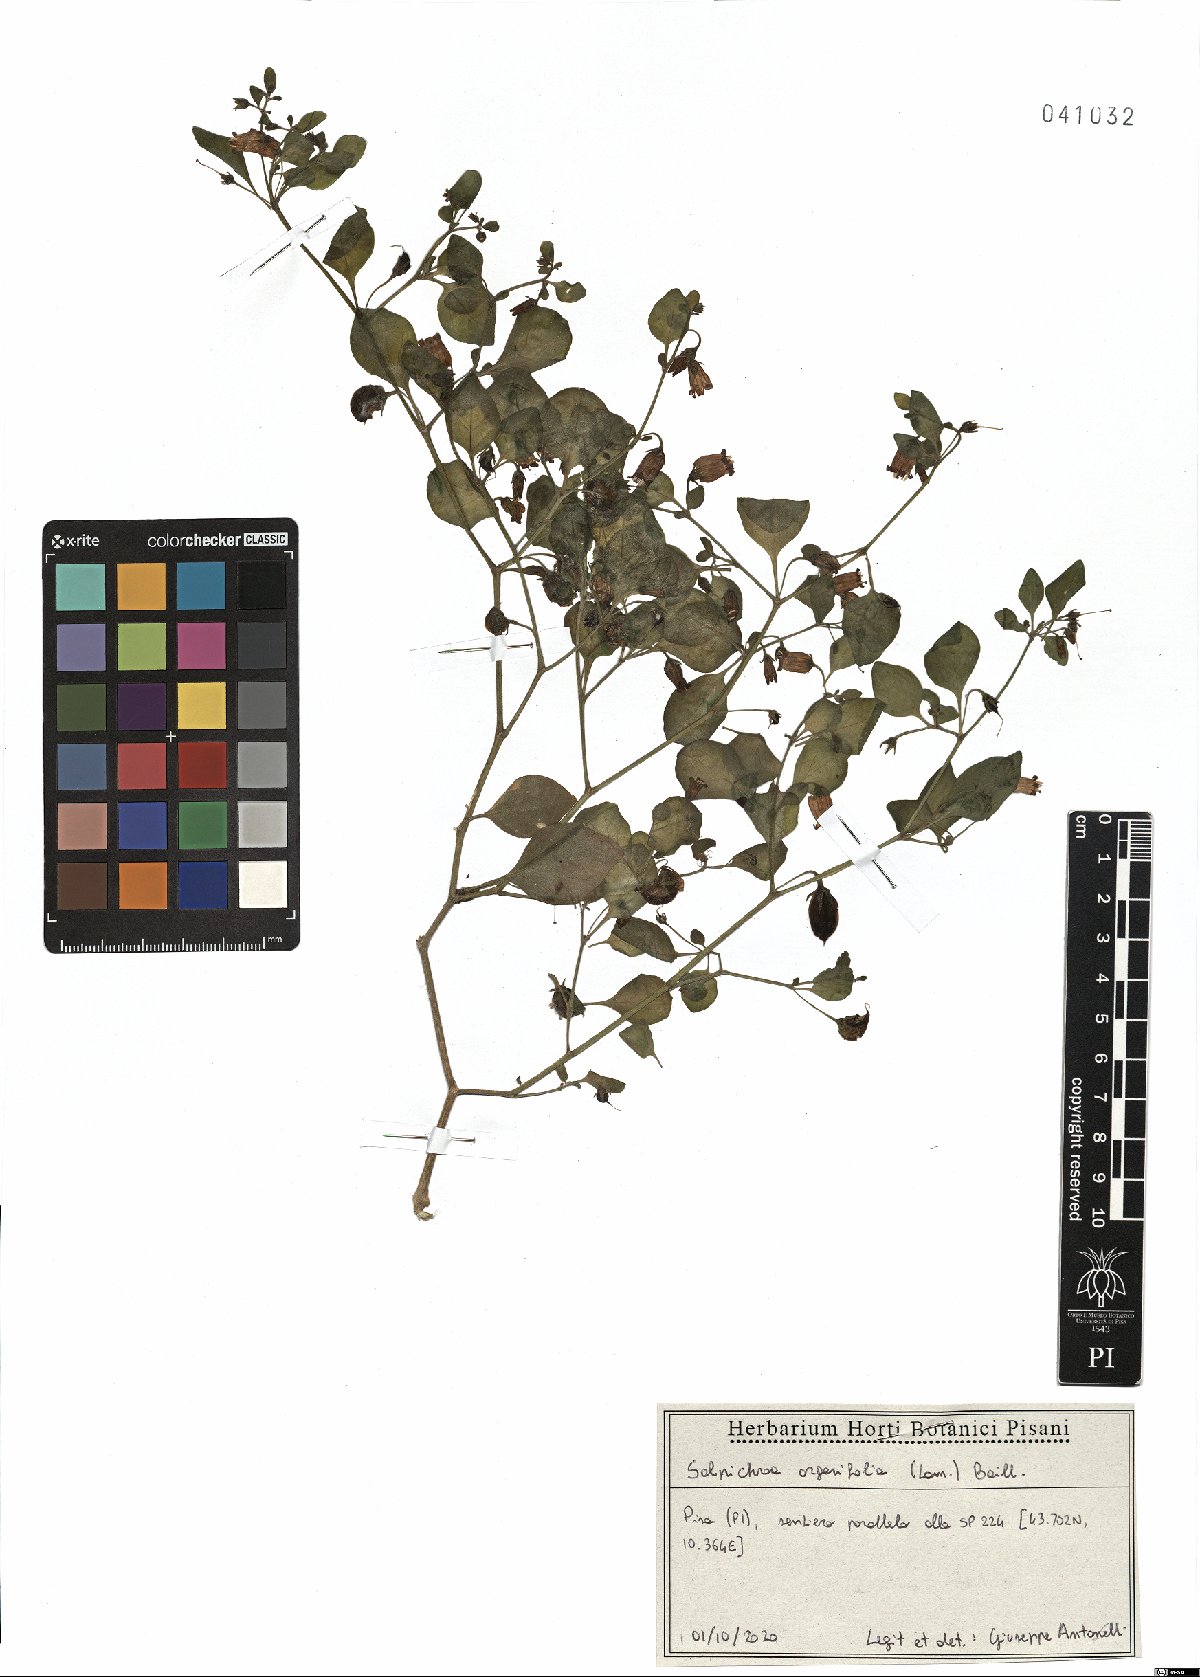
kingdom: Plantae
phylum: Tracheophyta
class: Magnoliopsida
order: Solanales
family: Solanaceae
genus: Salpichroa
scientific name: Salpichroa origanifolia
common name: Lily-of-the-valley-vine
